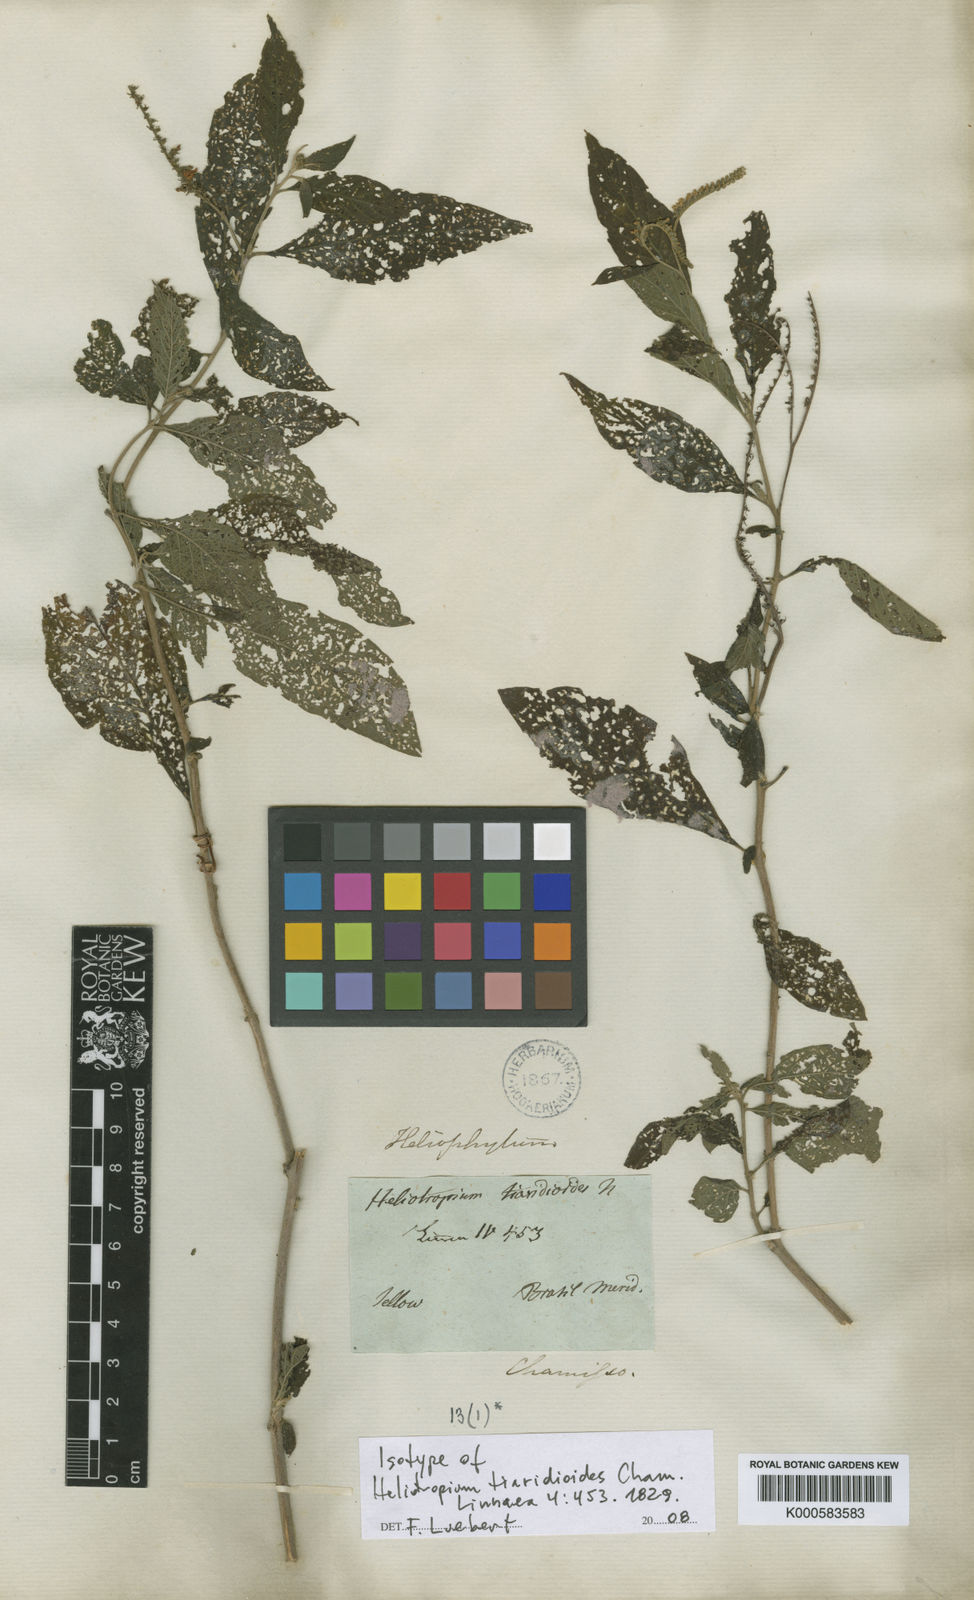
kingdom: Plantae
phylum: Tracheophyta
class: Magnoliopsida
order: Boraginales
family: Heliotropiaceae
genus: Heliotropium
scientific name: Heliotropium tiaridioides
